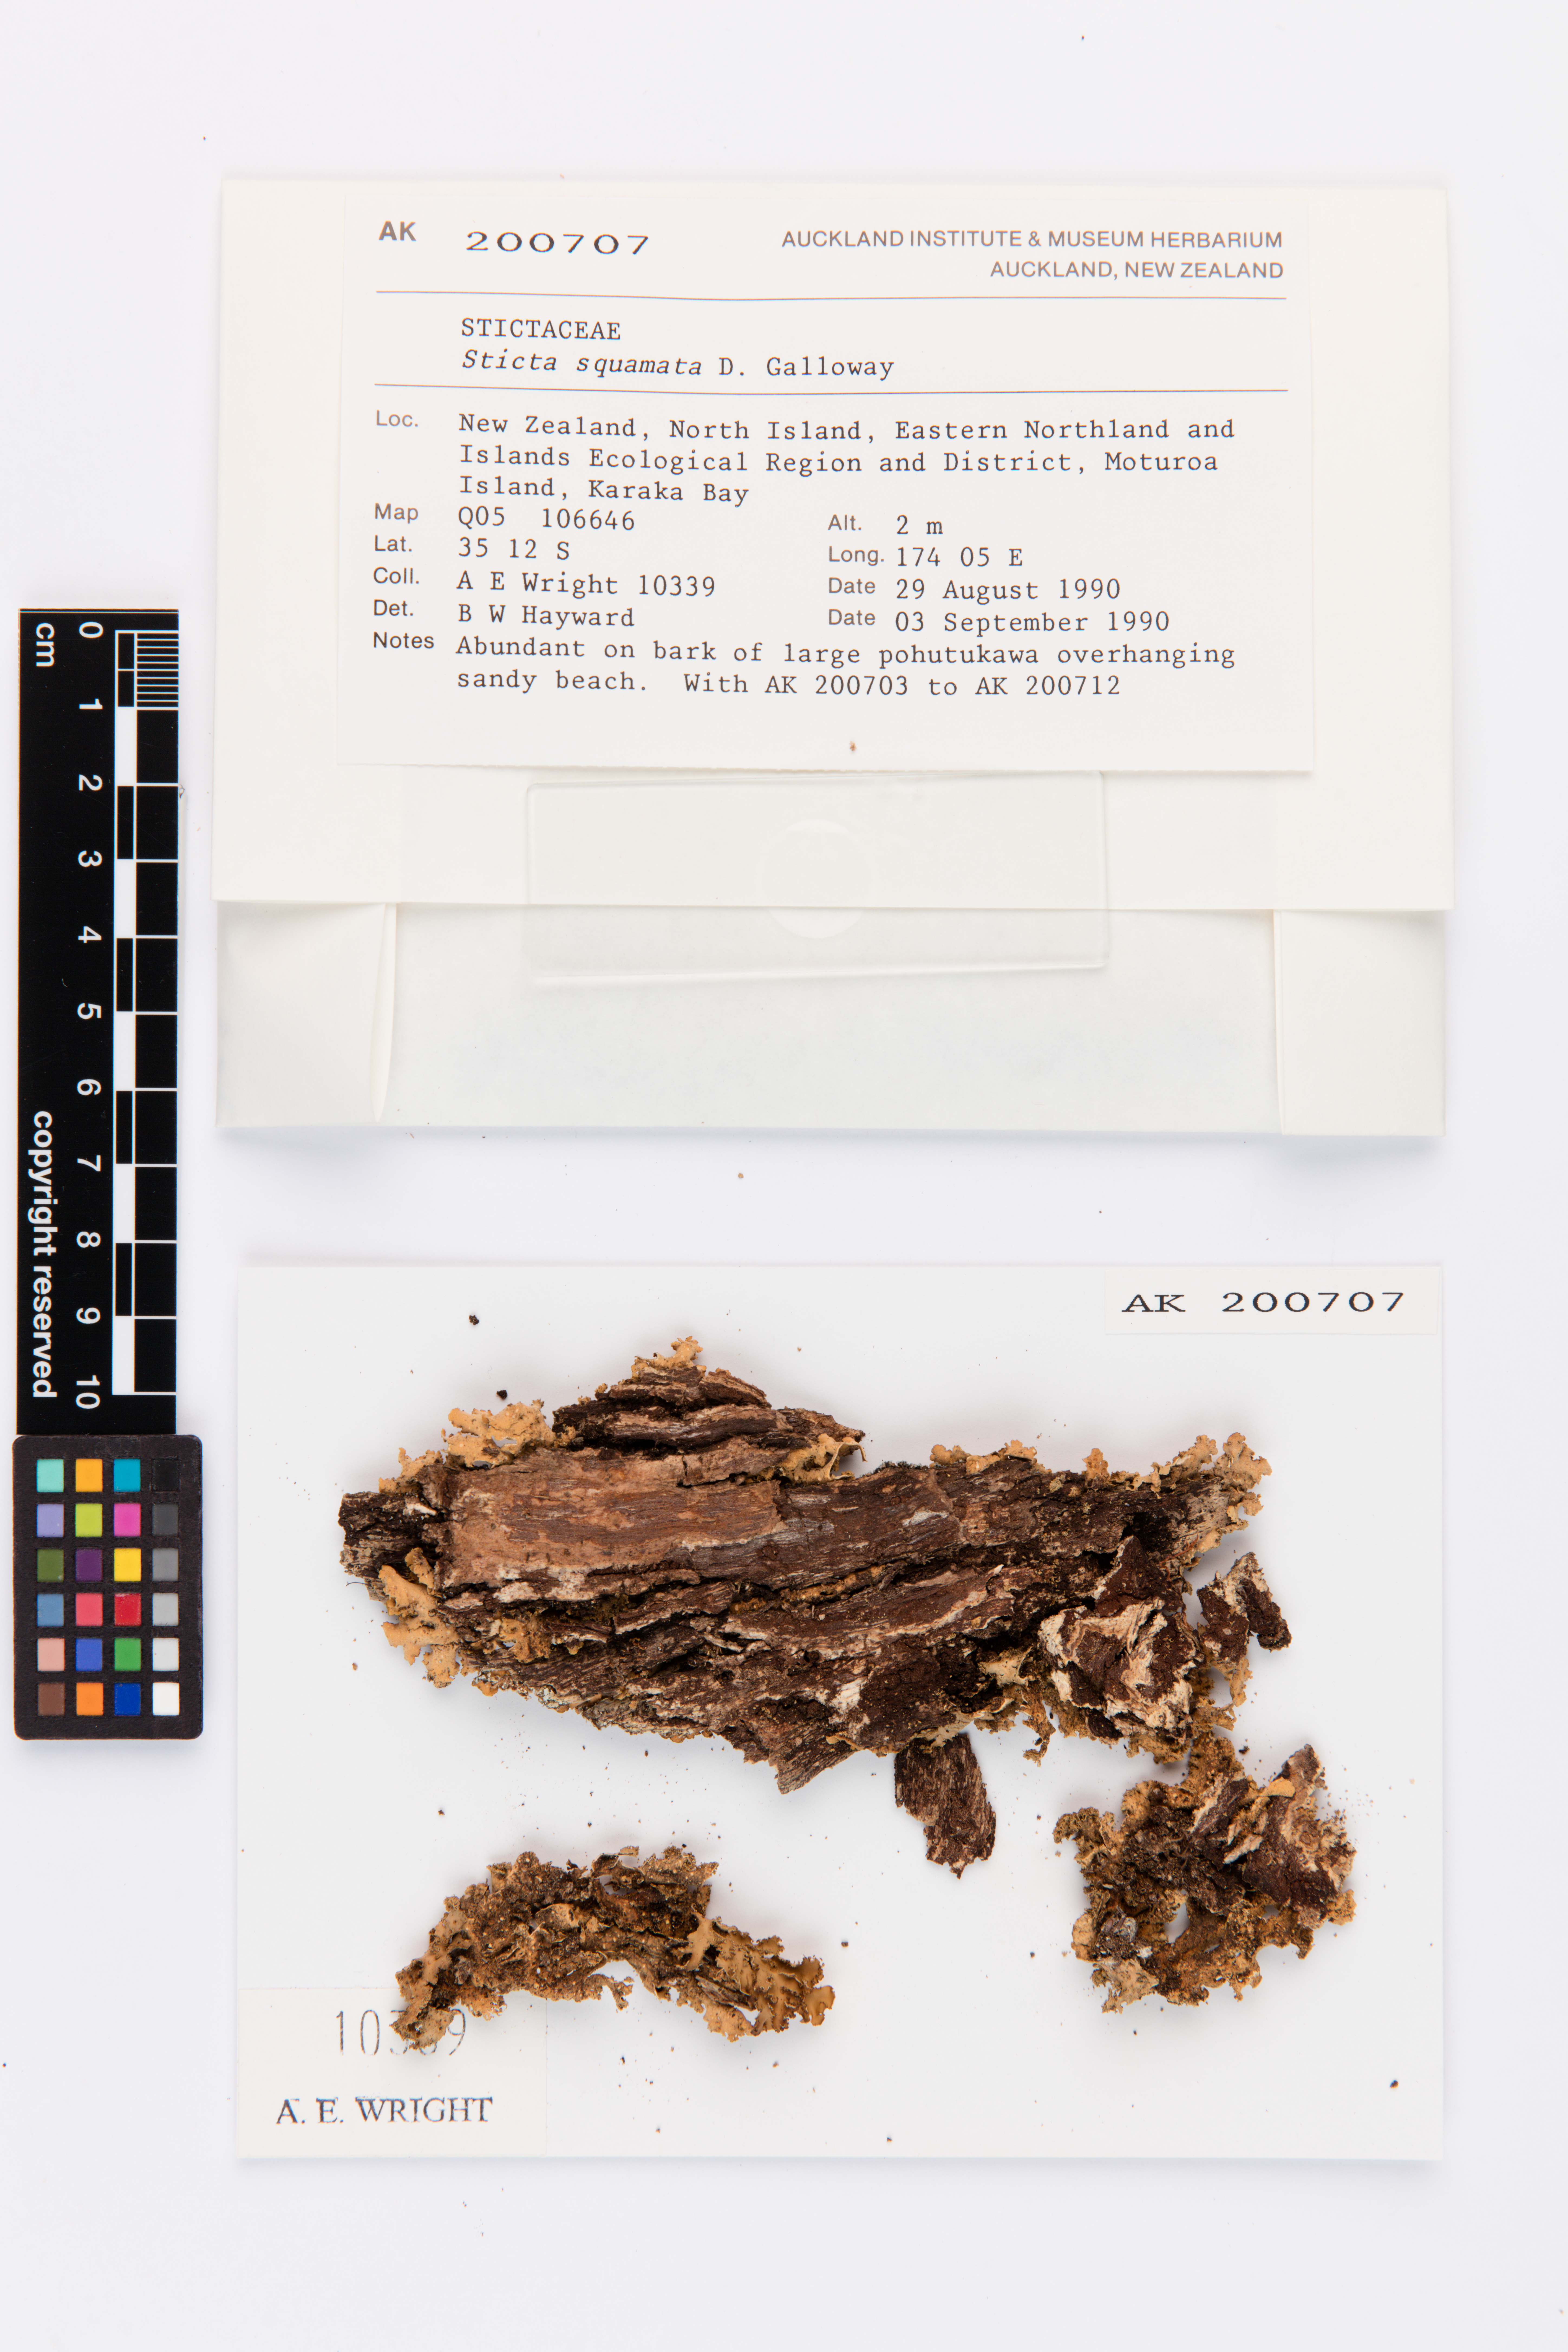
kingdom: Fungi
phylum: Ascomycota
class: Lecanoromycetes
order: Peltigerales
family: Lobariaceae
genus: Sticta
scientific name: Sticta squamata
